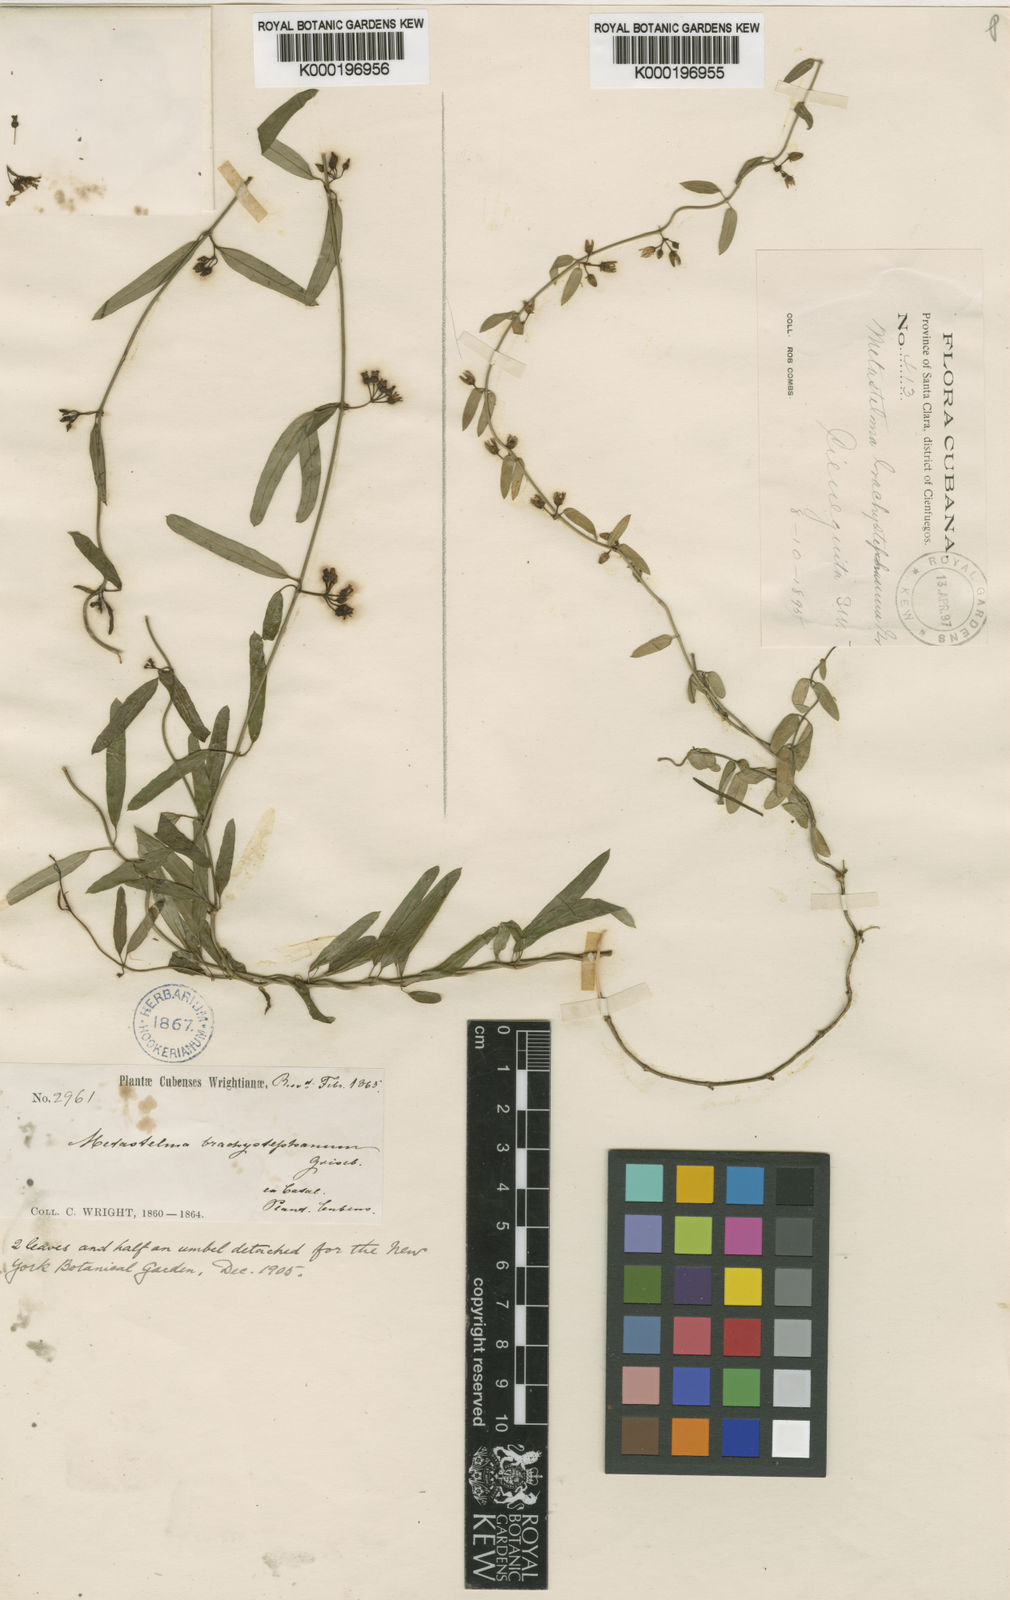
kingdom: Plantae
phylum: Tracheophyta
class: Magnoliopsida
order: Gentianales
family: Apocynaceae
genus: Metastelma
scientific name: Metastelma brachystephanum
